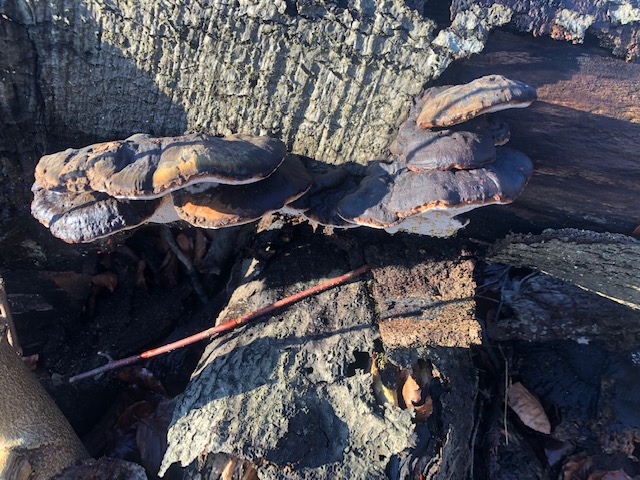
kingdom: Fungi
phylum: Basidiomycota
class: Agaricomycetes
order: Polyporales
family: Ischnodermataceae
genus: Ischnoderma
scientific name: Ischnoderma resinosum
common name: løv-tjæreporesvamp
